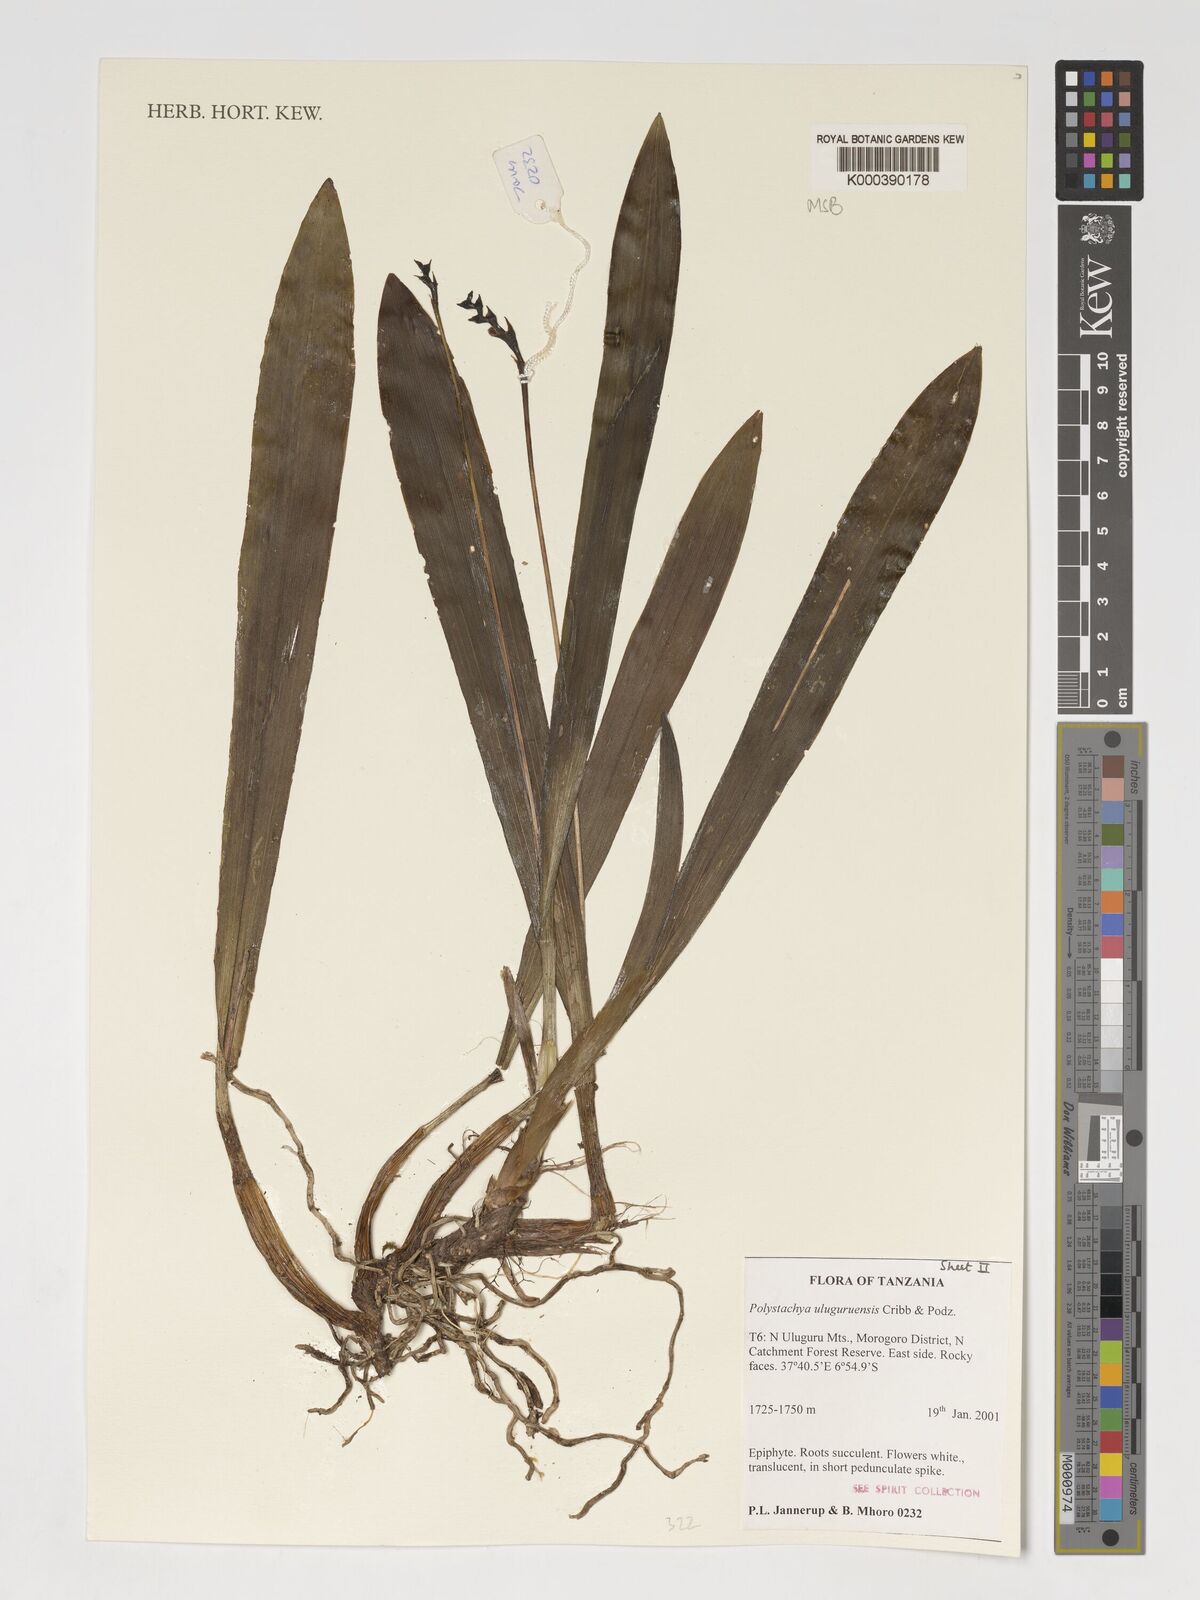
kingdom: Plantae
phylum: Tracheophyta
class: Liliopsida
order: Asparagales
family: Orchidaceae
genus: Polystachya
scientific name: Polystachya uluguruensis
